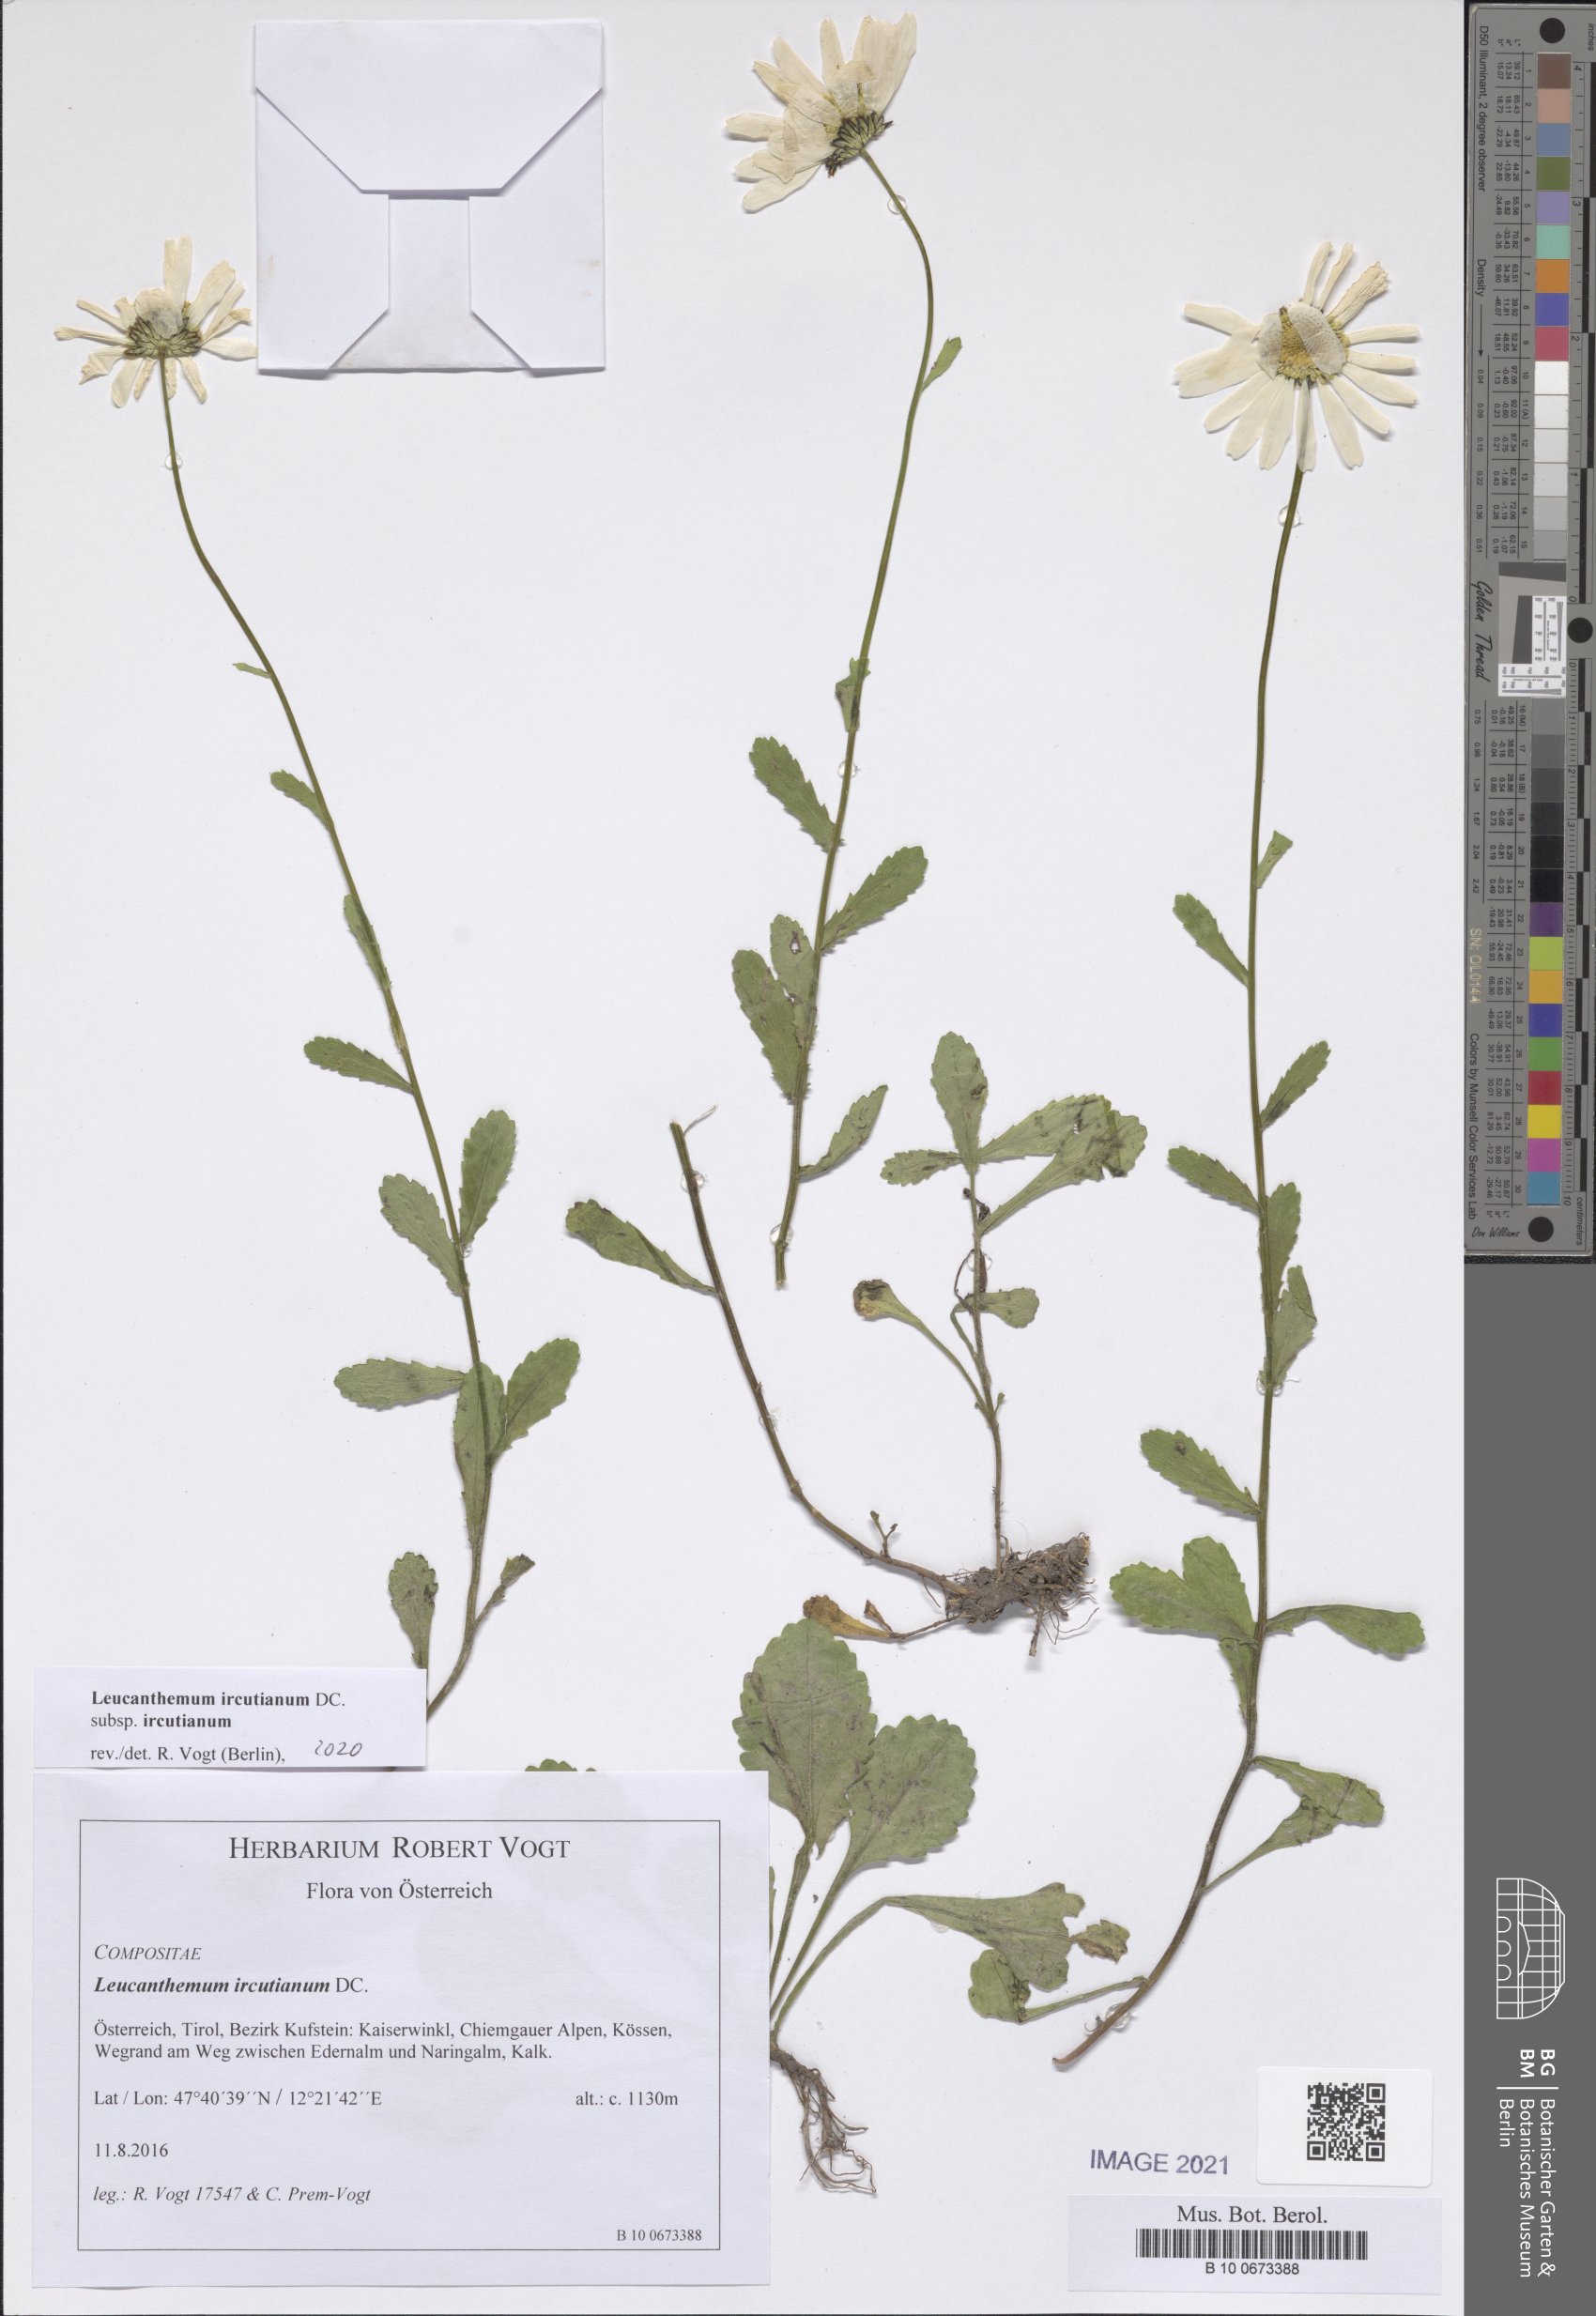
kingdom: Plantae
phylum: Tracheophyta
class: Magnoliopsida
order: Asterales
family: Asteraceae
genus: Leucanthemum
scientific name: Leucanthemum ircutianum
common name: Daisy
